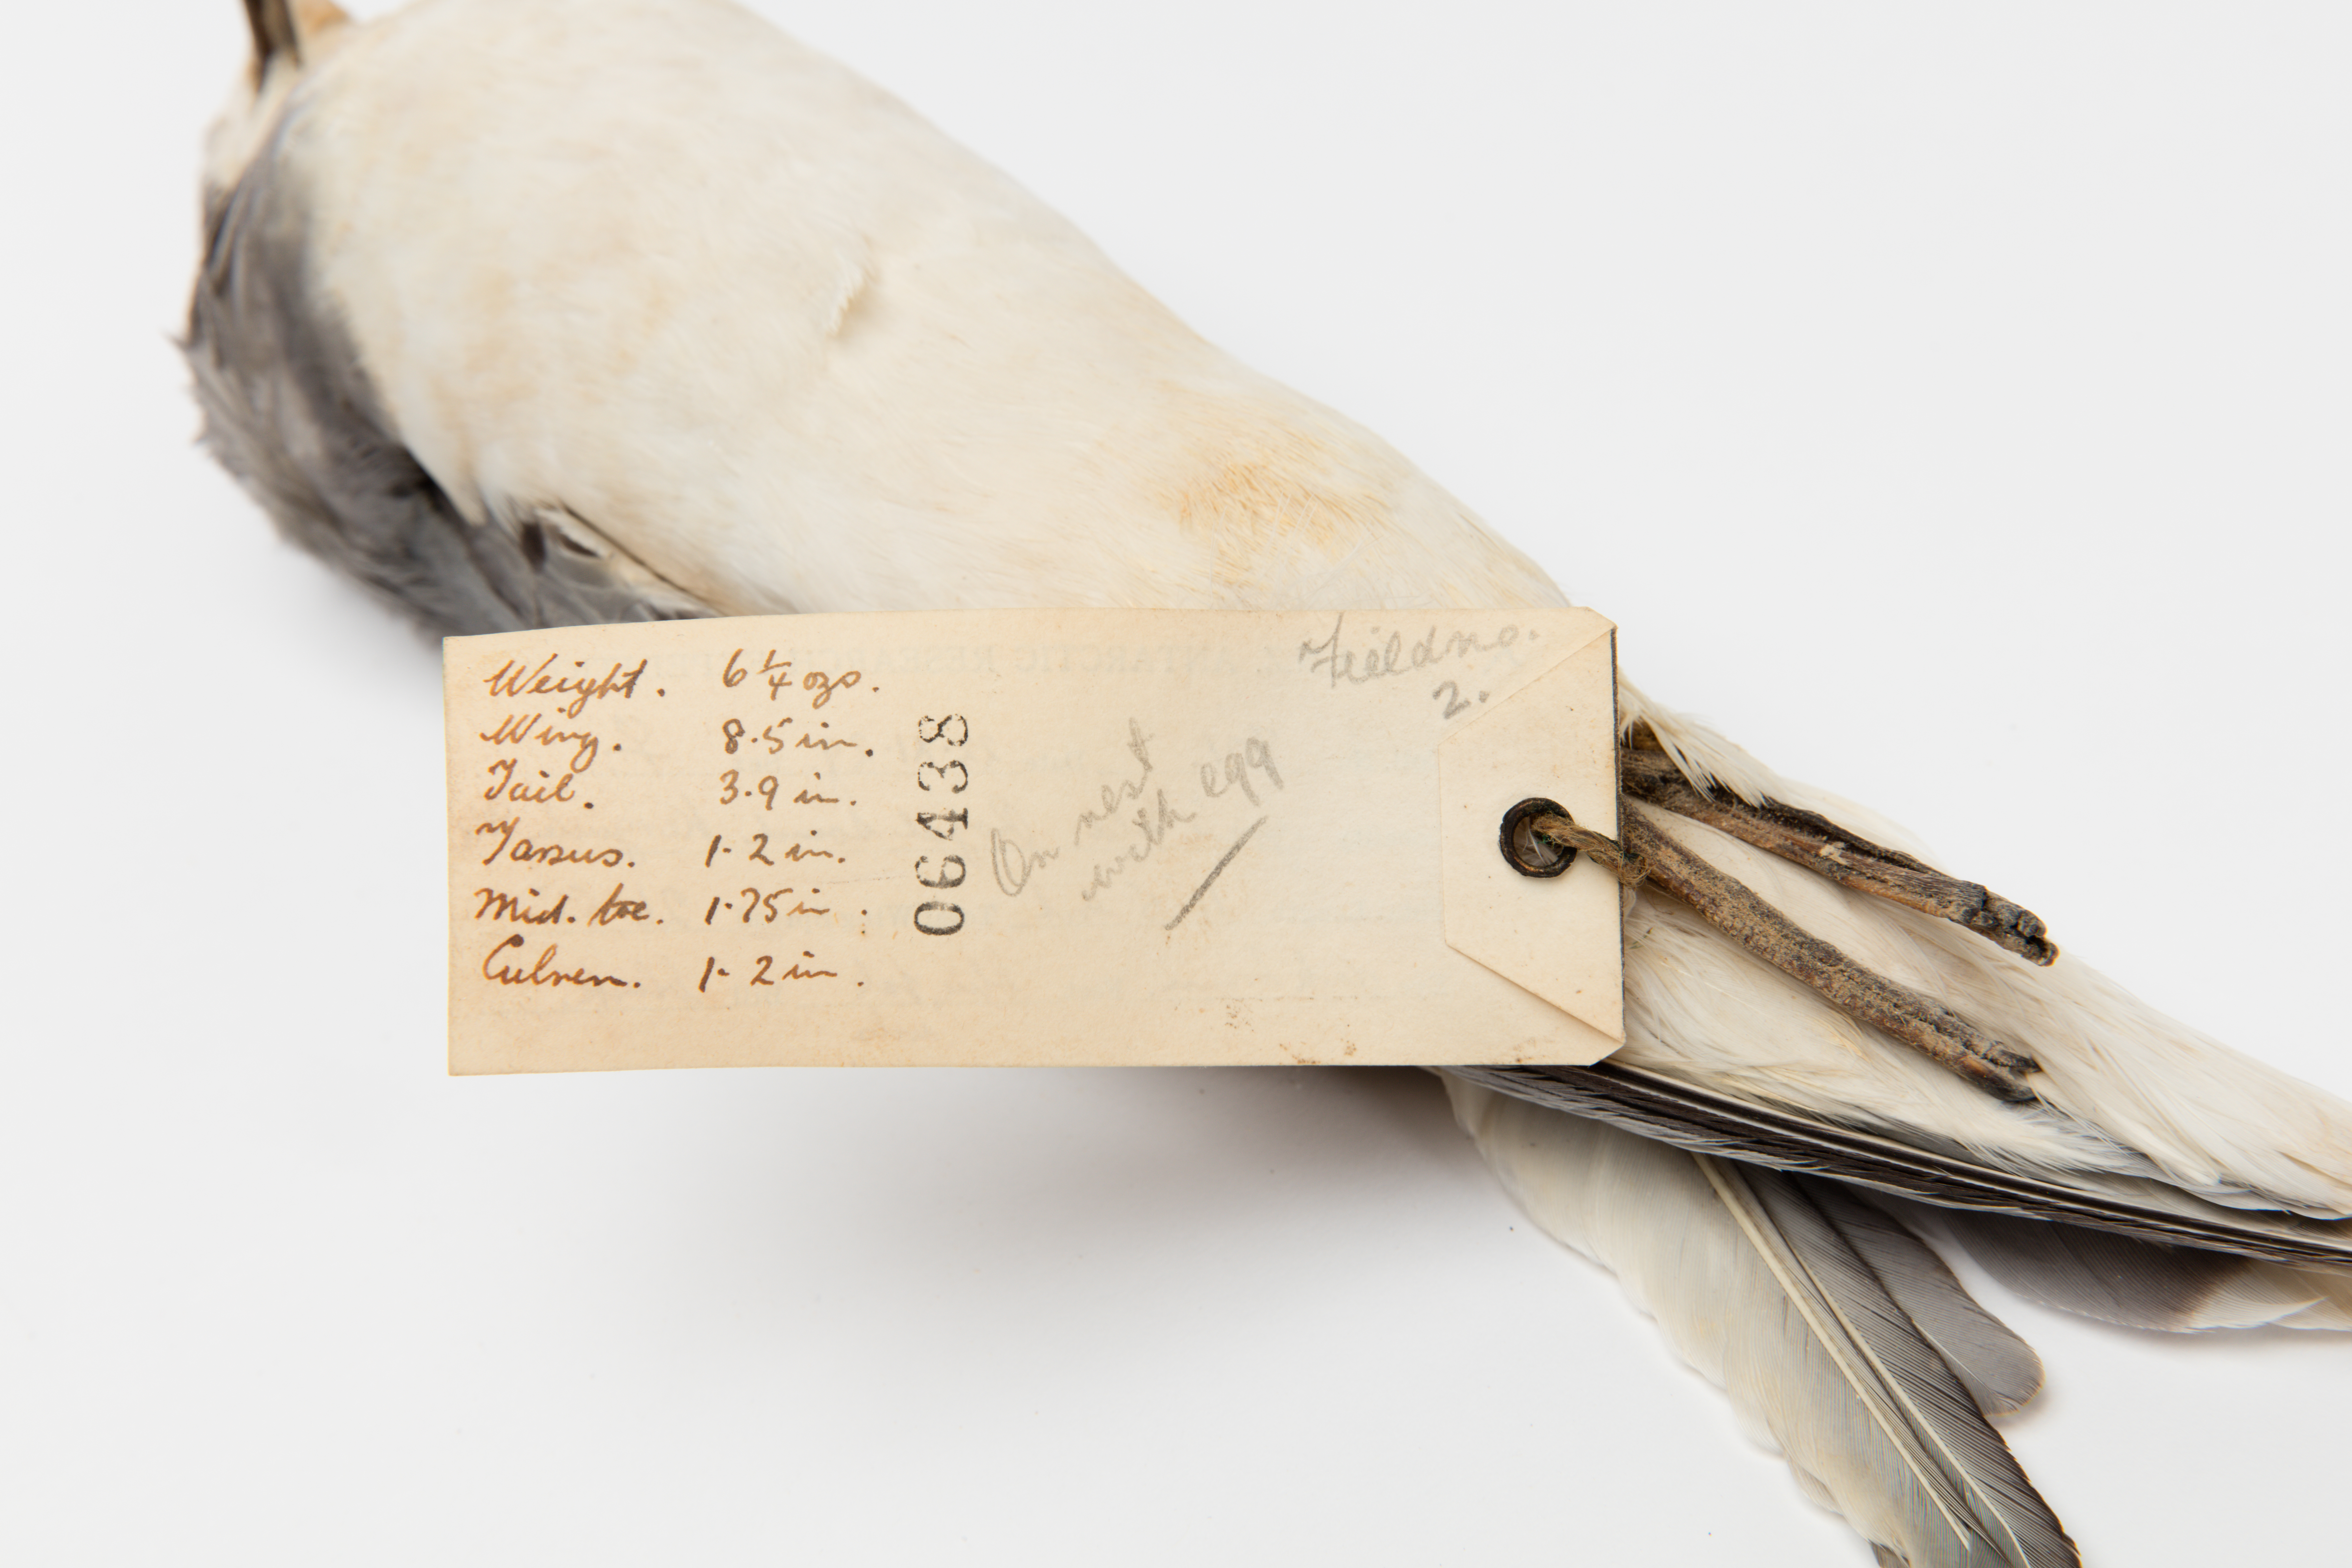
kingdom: Animalia
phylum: Chordata
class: Aves
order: Procellariiformes
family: Procellariidae
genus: Halobaena
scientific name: Halobaena caerulea
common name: Blue petrel
